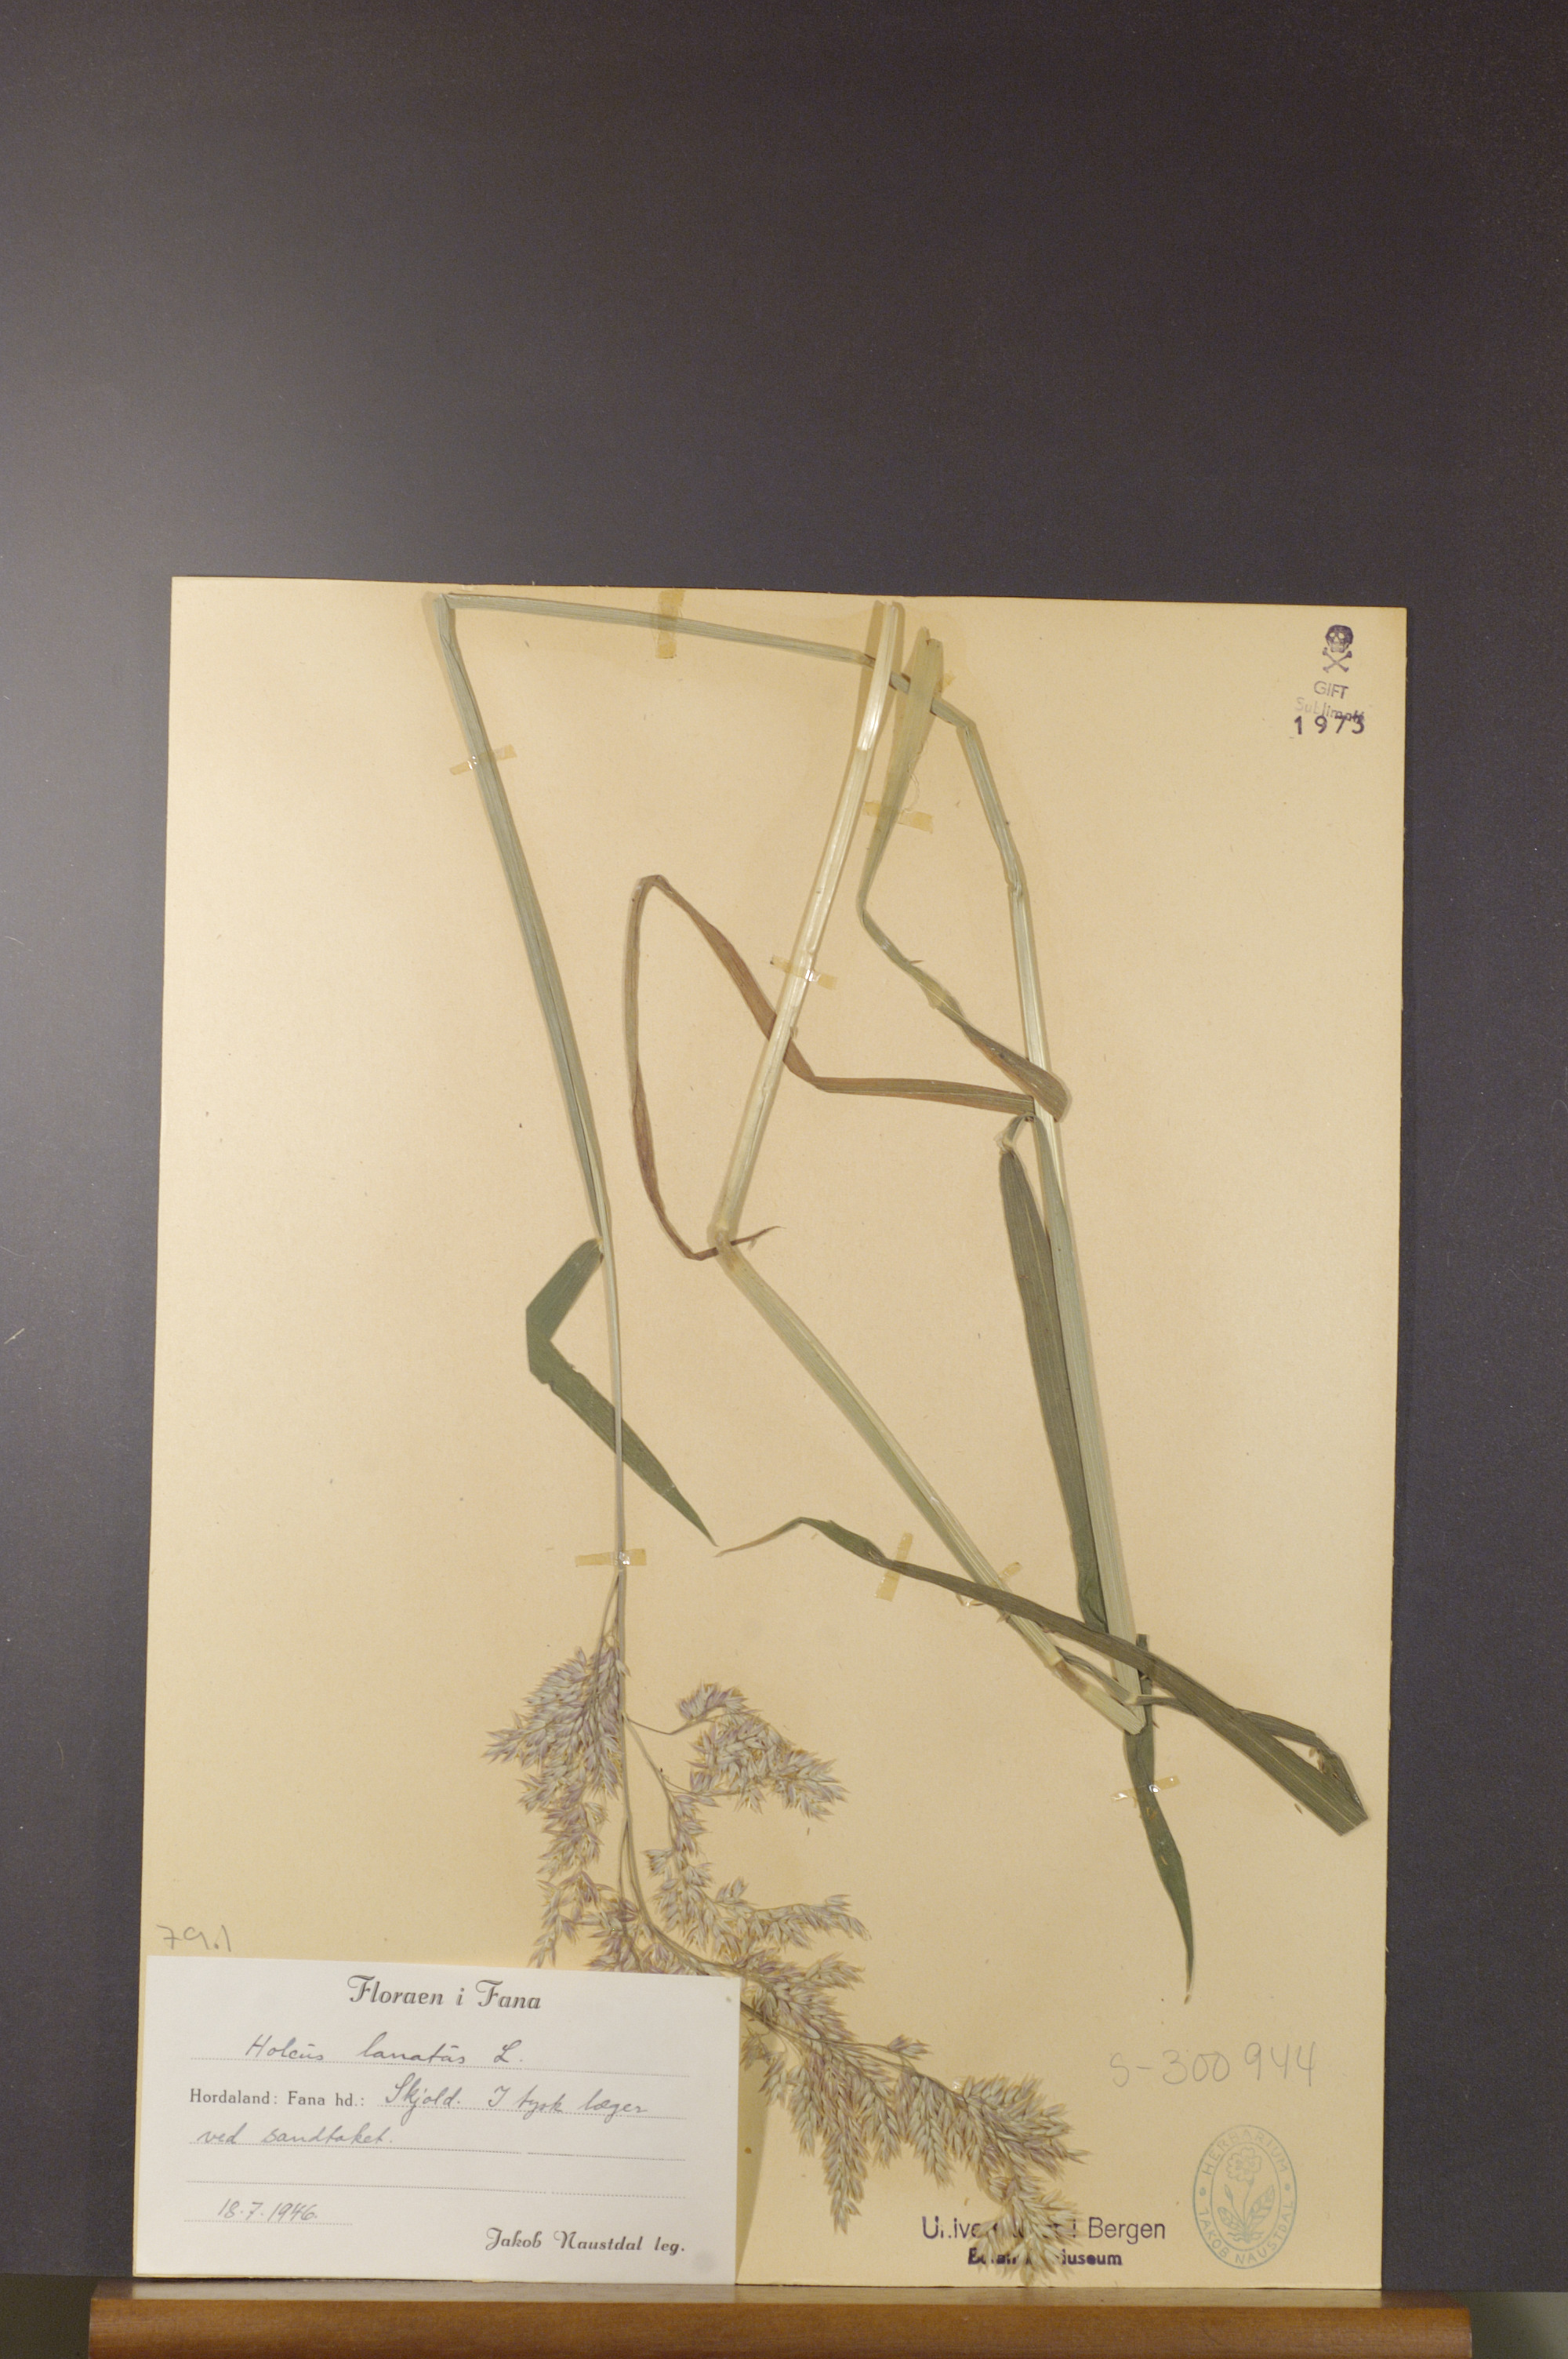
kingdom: Plantae
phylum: Tracheophyta
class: Liliopsida
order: Poales
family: Poaceae
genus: Holcus
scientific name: Holcus lanatus
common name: Yorkshire-fog
